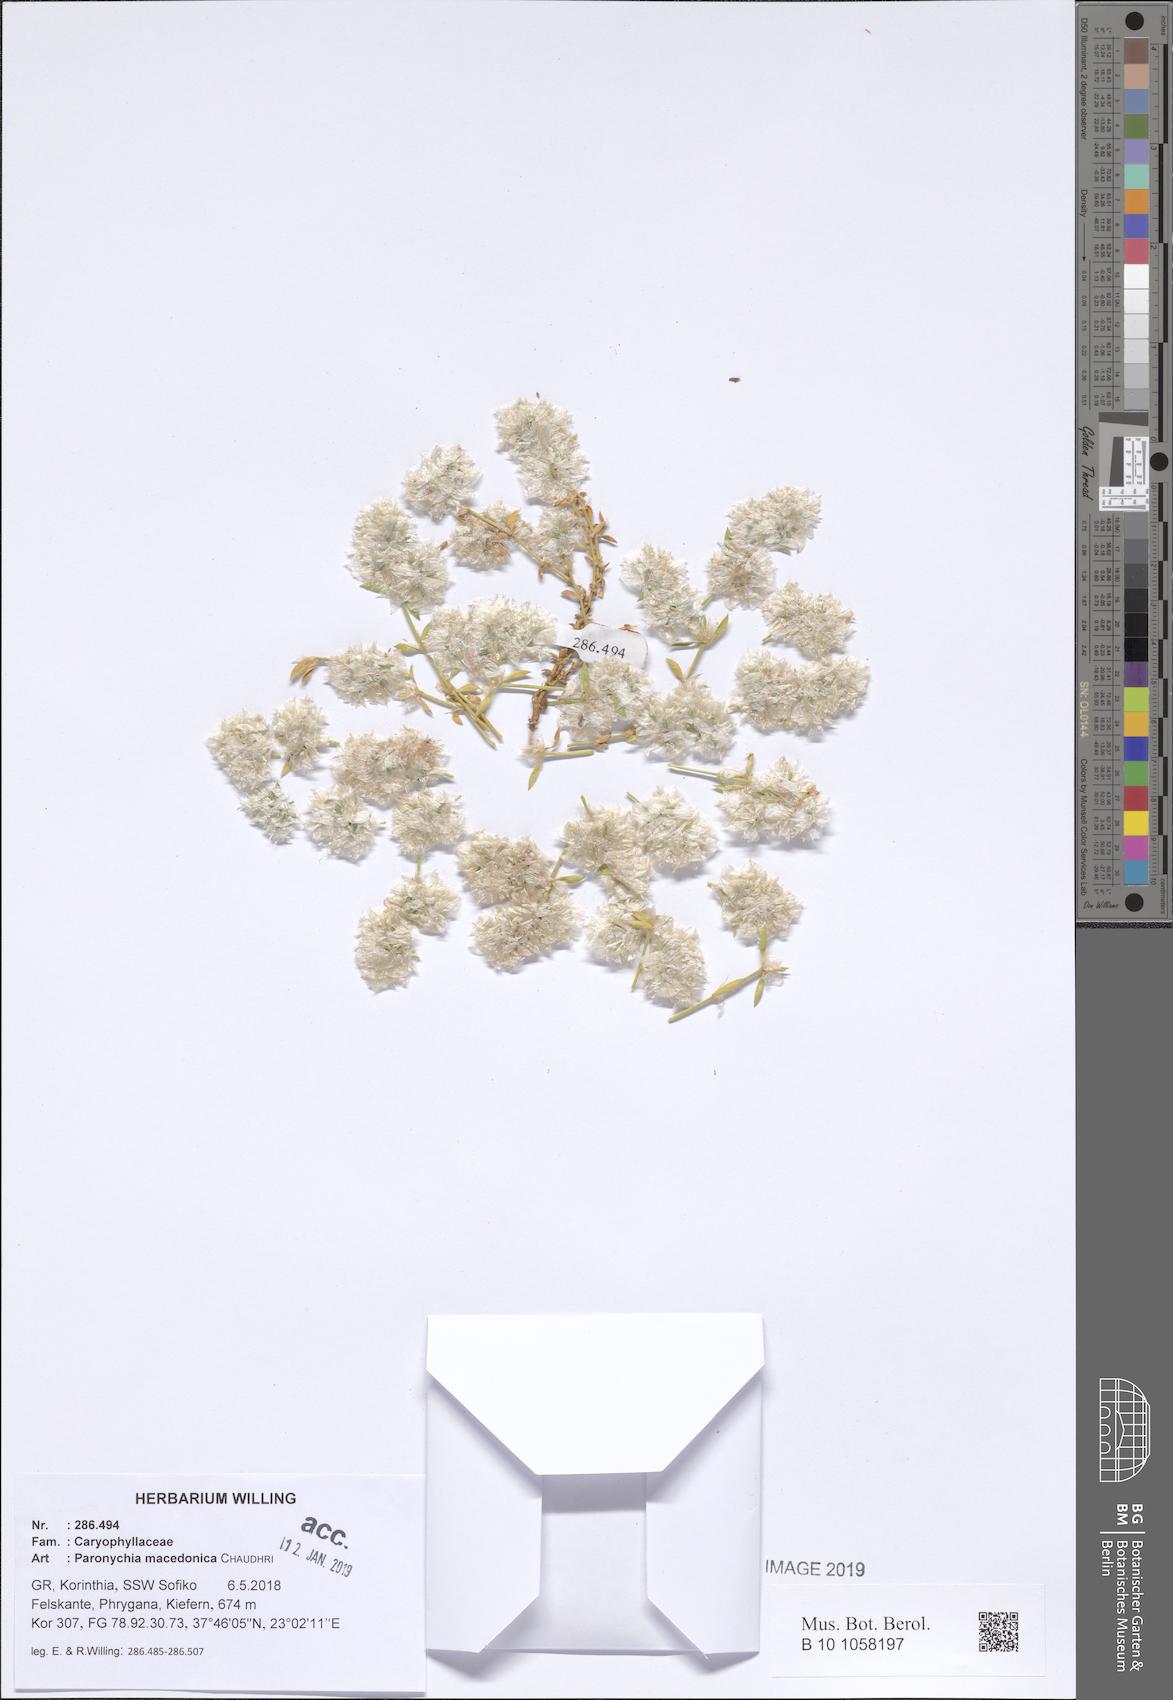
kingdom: Plantae
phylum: Tracheophyta
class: Magnoliopsida
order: Caryophyllales
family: Caryophyllaceae
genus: Paronychia
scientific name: Paronychia macedonica
